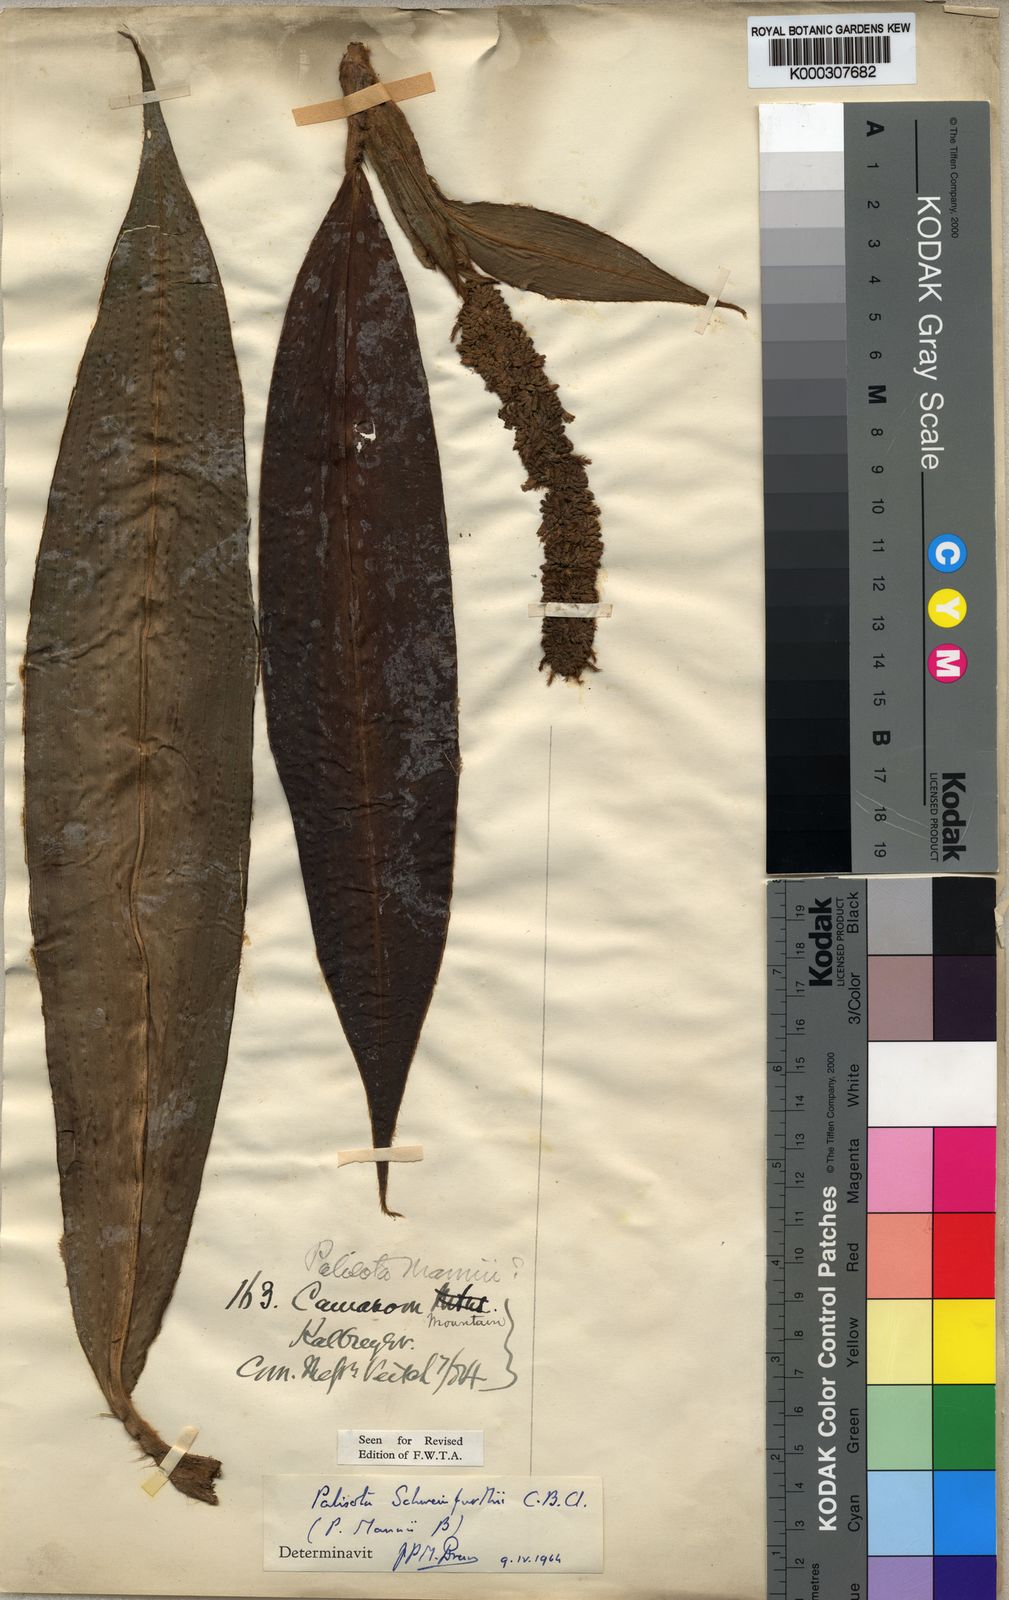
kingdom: Plantae
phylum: Tracheophyta
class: Liliopsida
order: Commelinales
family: Commelinaceae
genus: Palisota
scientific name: Palisota schweinfurthii
